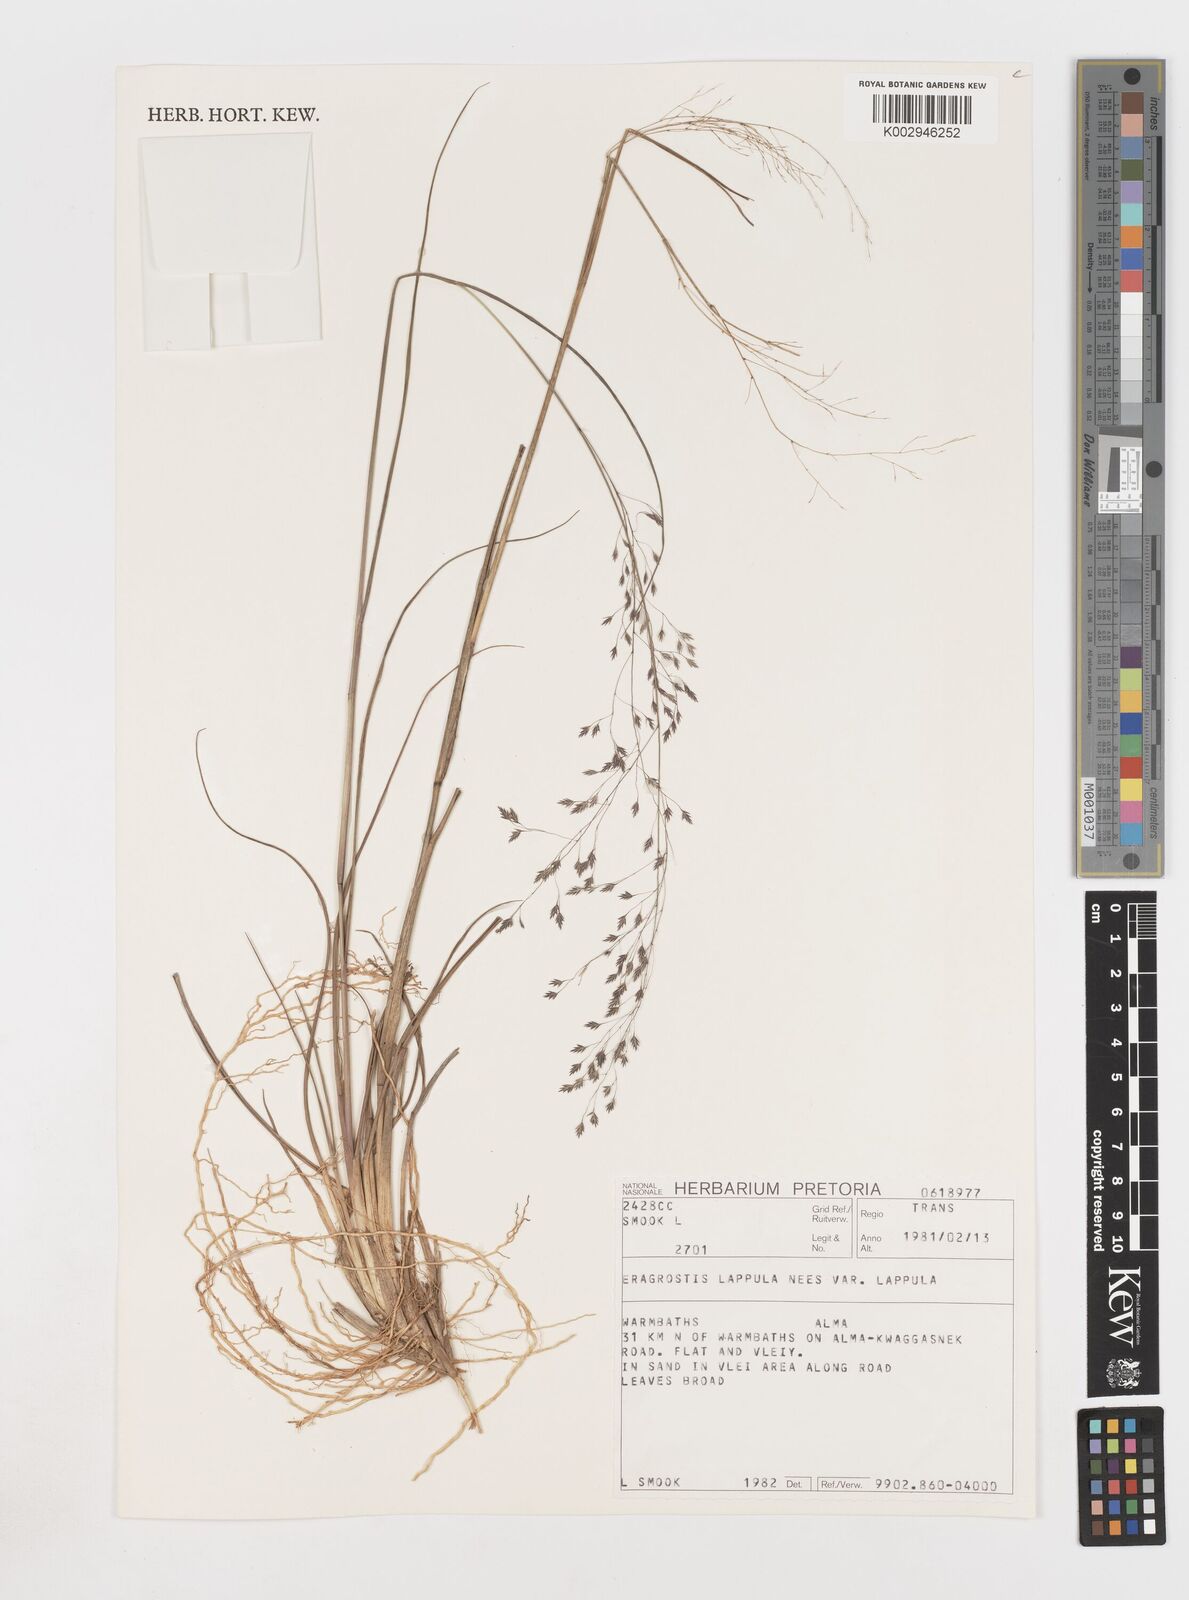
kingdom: Plantae
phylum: Tracheophyta
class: Liliopsida
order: Poales
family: Poaceae
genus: Eragrostis
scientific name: Eragrostis lappula
